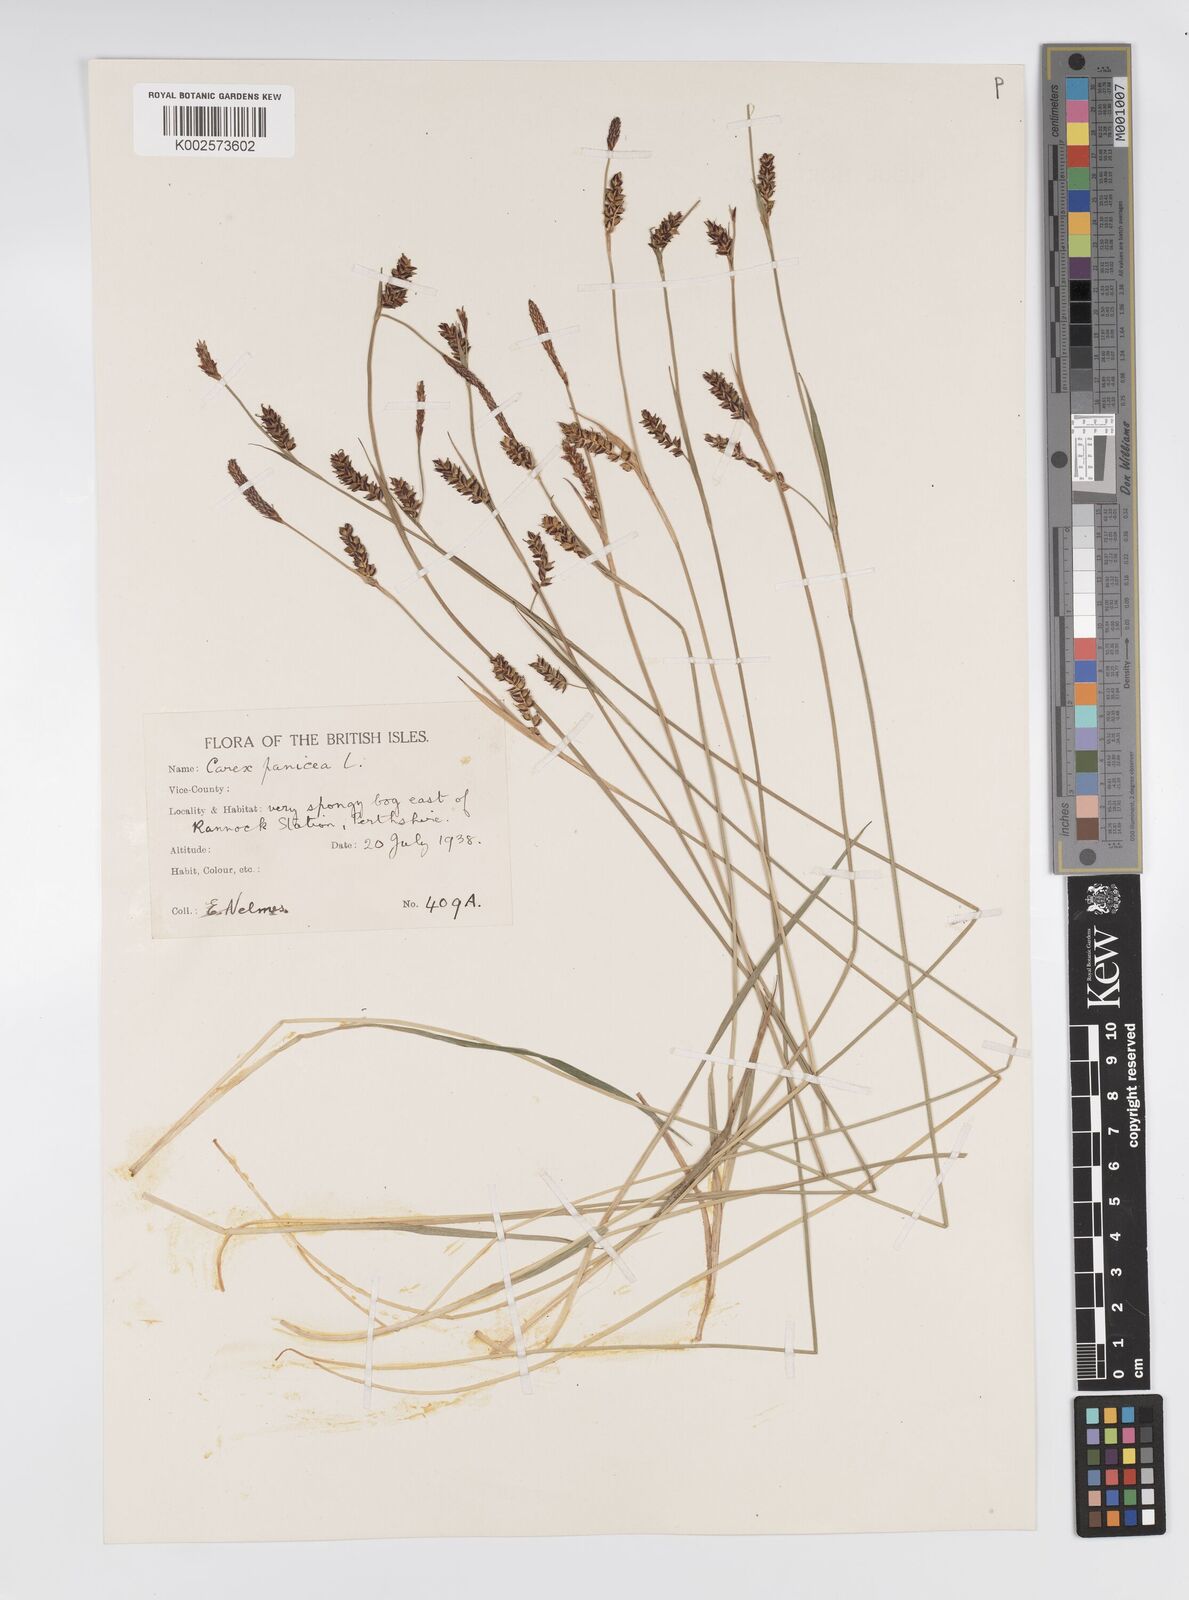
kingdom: Plantae
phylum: Tracheophyta
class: Liliopsida
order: Poales
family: Cyperaceae
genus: Carex
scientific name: Carex panicea
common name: Carnation sedge
